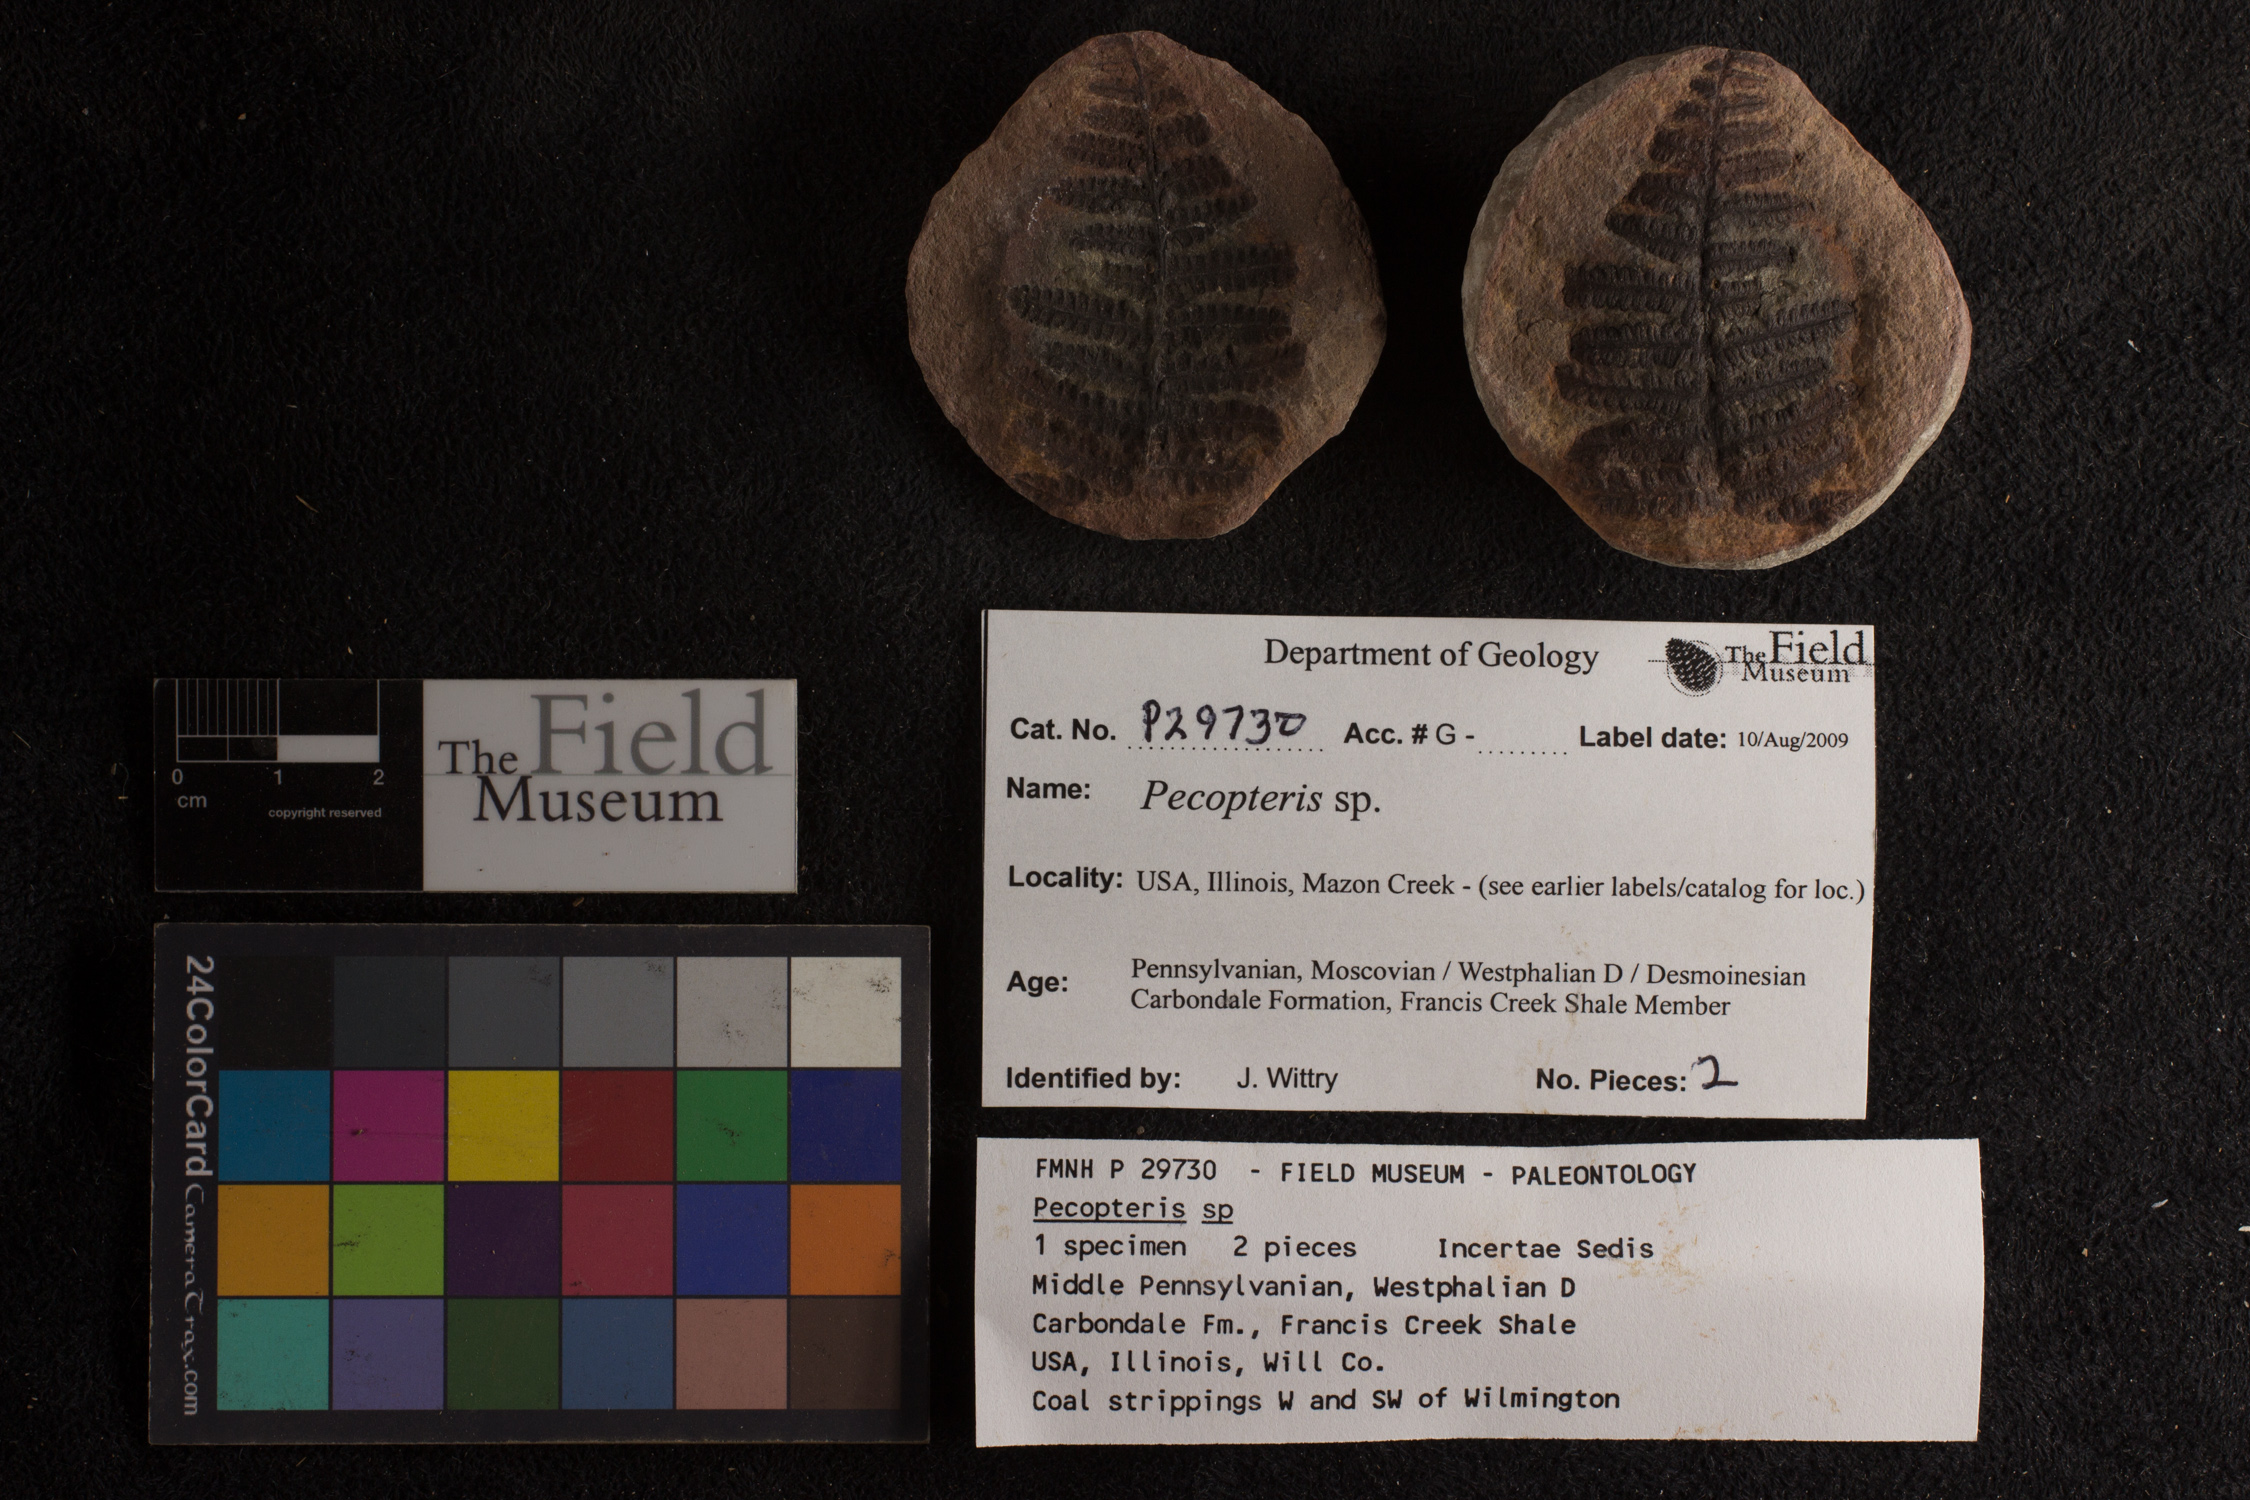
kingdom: Plantae
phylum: Tracheophyta
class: Polypodiopsida
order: Marattiales
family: Asterothecaceae
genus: Pecopteris
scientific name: Pecopteris
